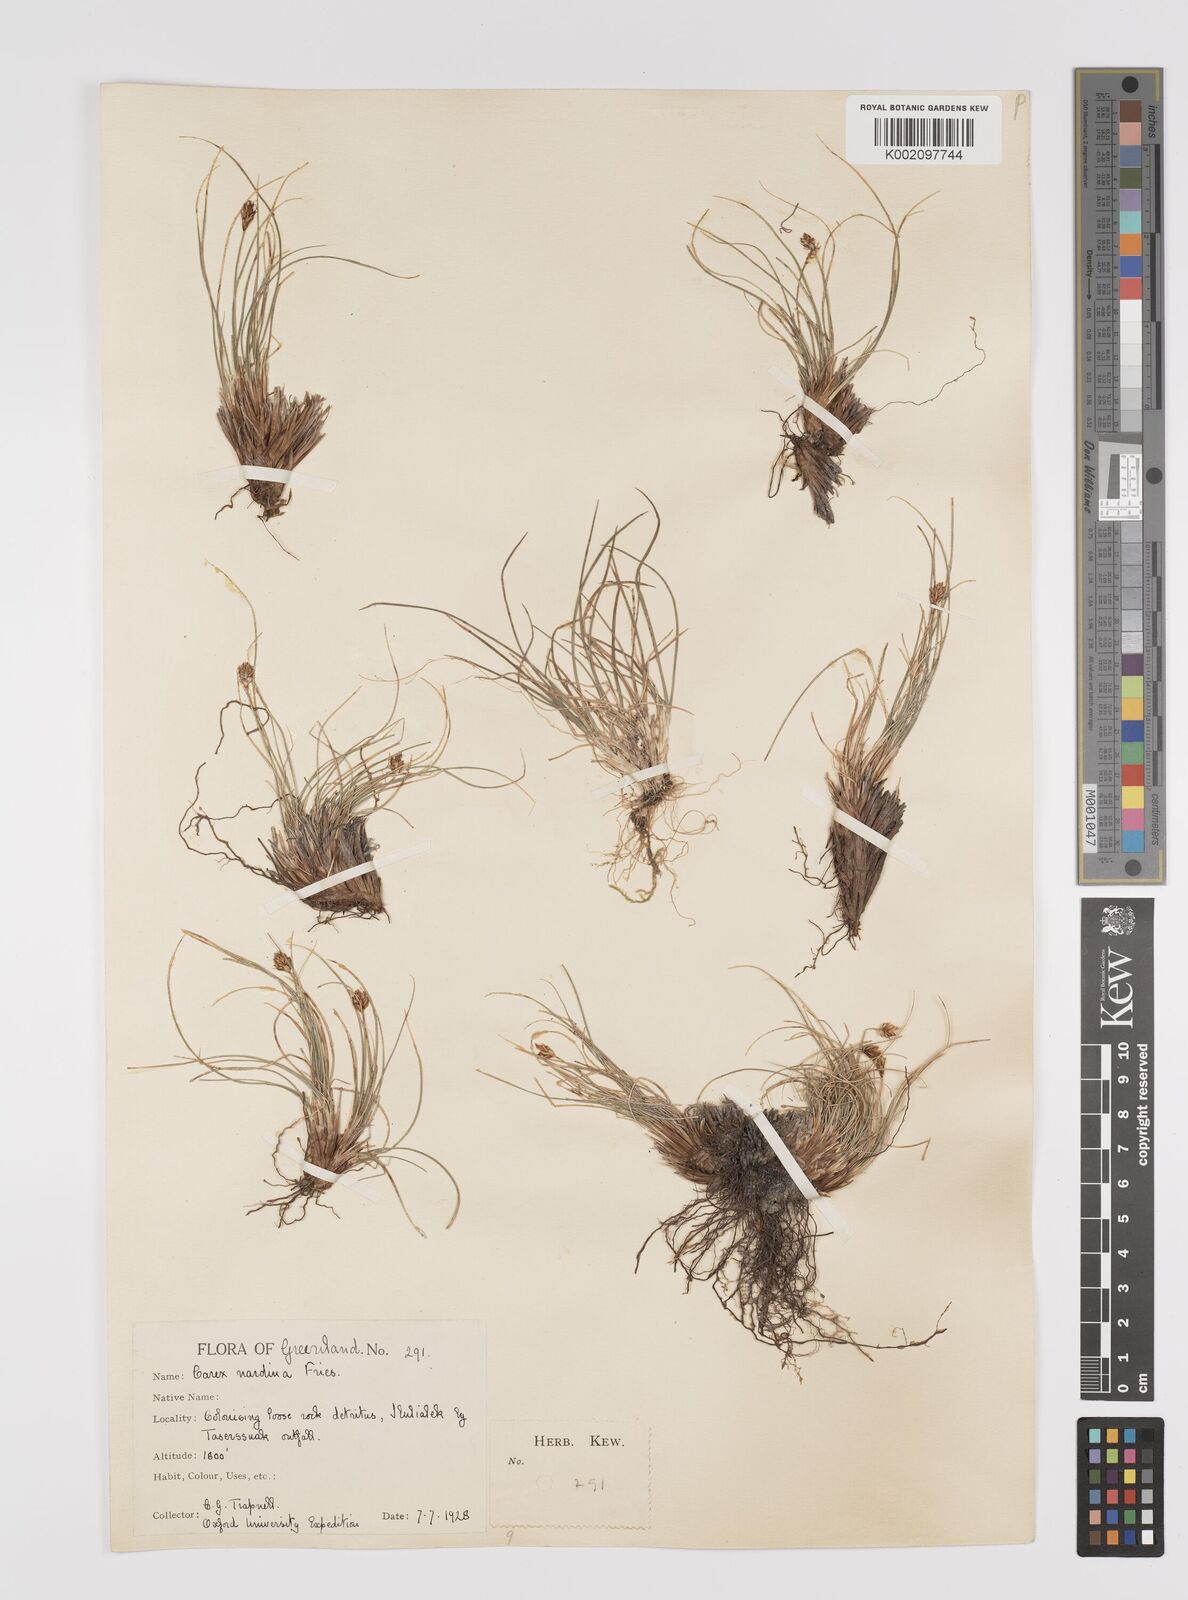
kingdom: Plantae
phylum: Tracheophyta
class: Liliopsida
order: Poales
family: Cyperaceae
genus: Carex
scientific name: Carex nardina
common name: Nard sedge
